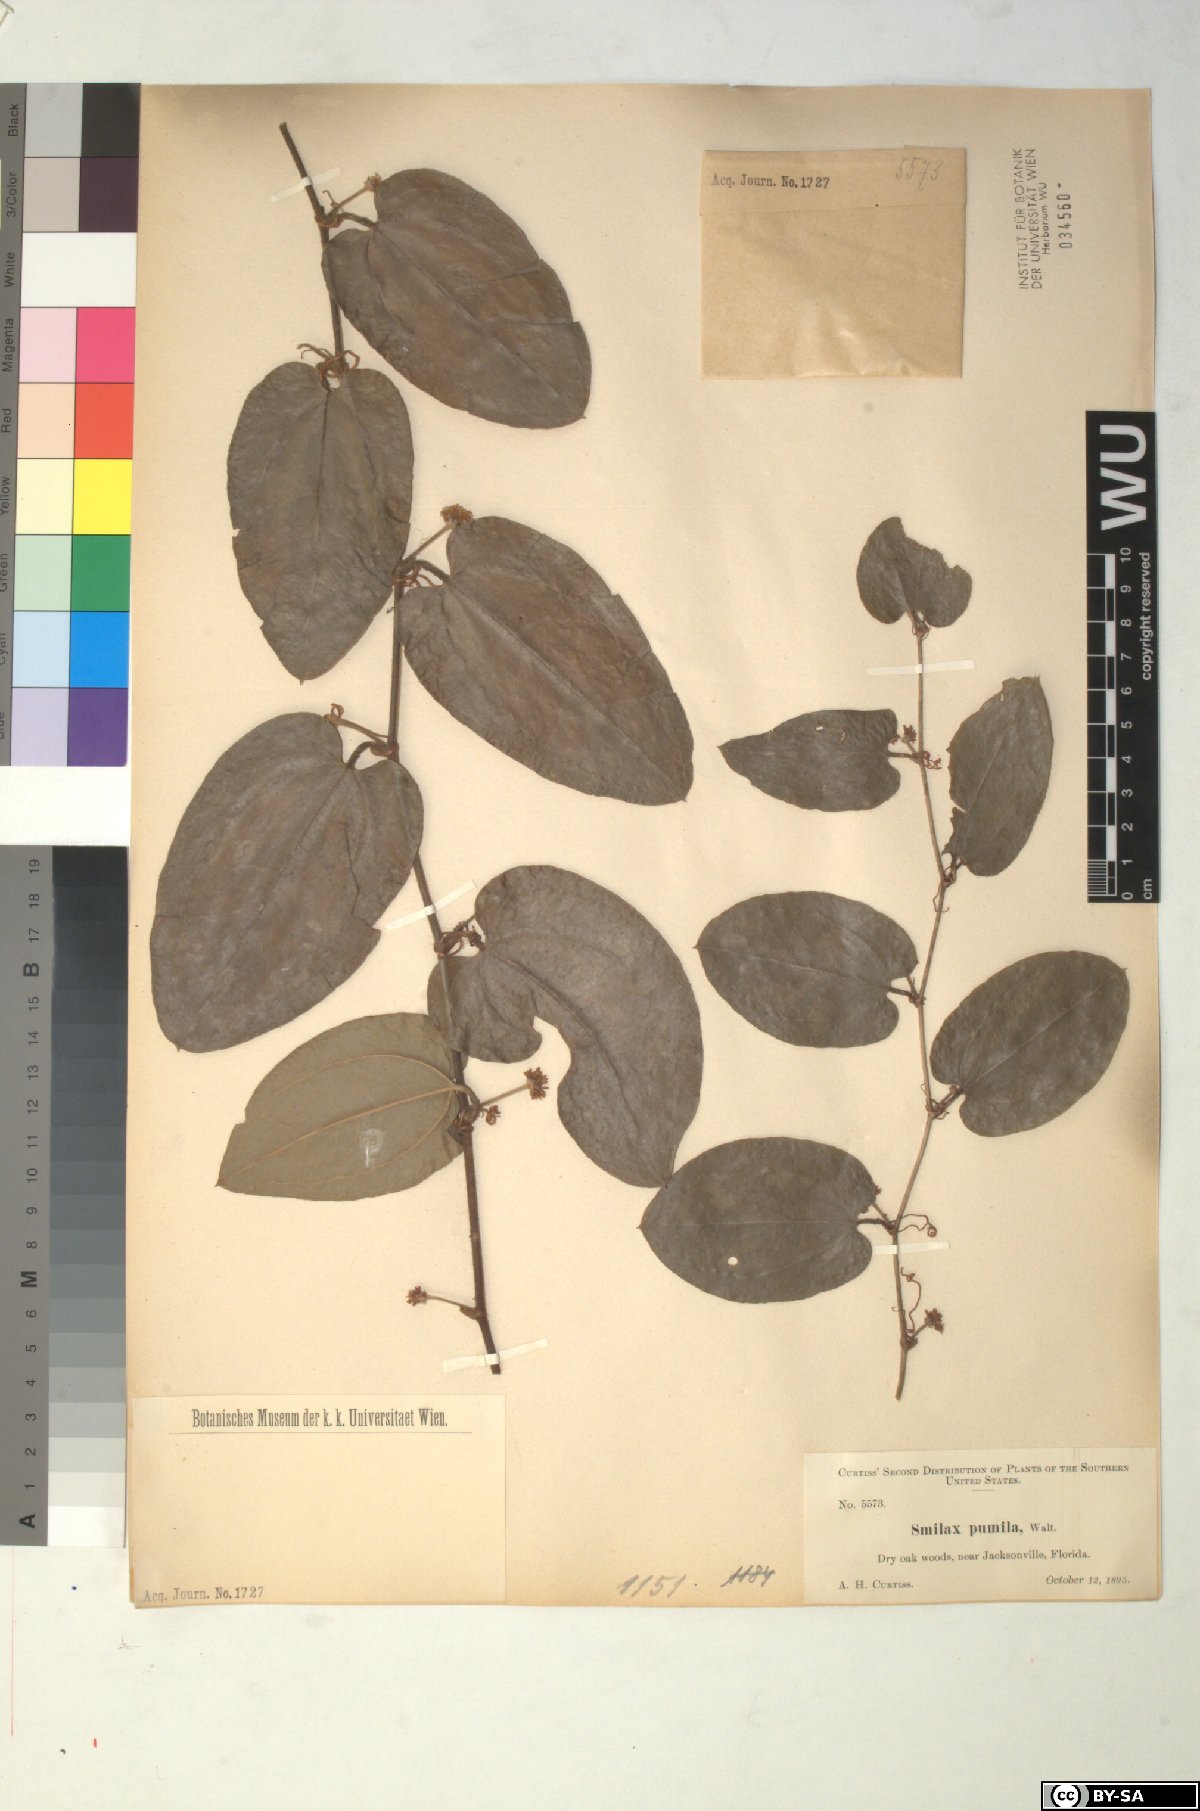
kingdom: Plantae
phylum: Tracheophyta
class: Liliopsida
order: Liliales
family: Smilacaceae
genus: Smilax
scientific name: Smilax pumila
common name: Sarsaparilla-vine
